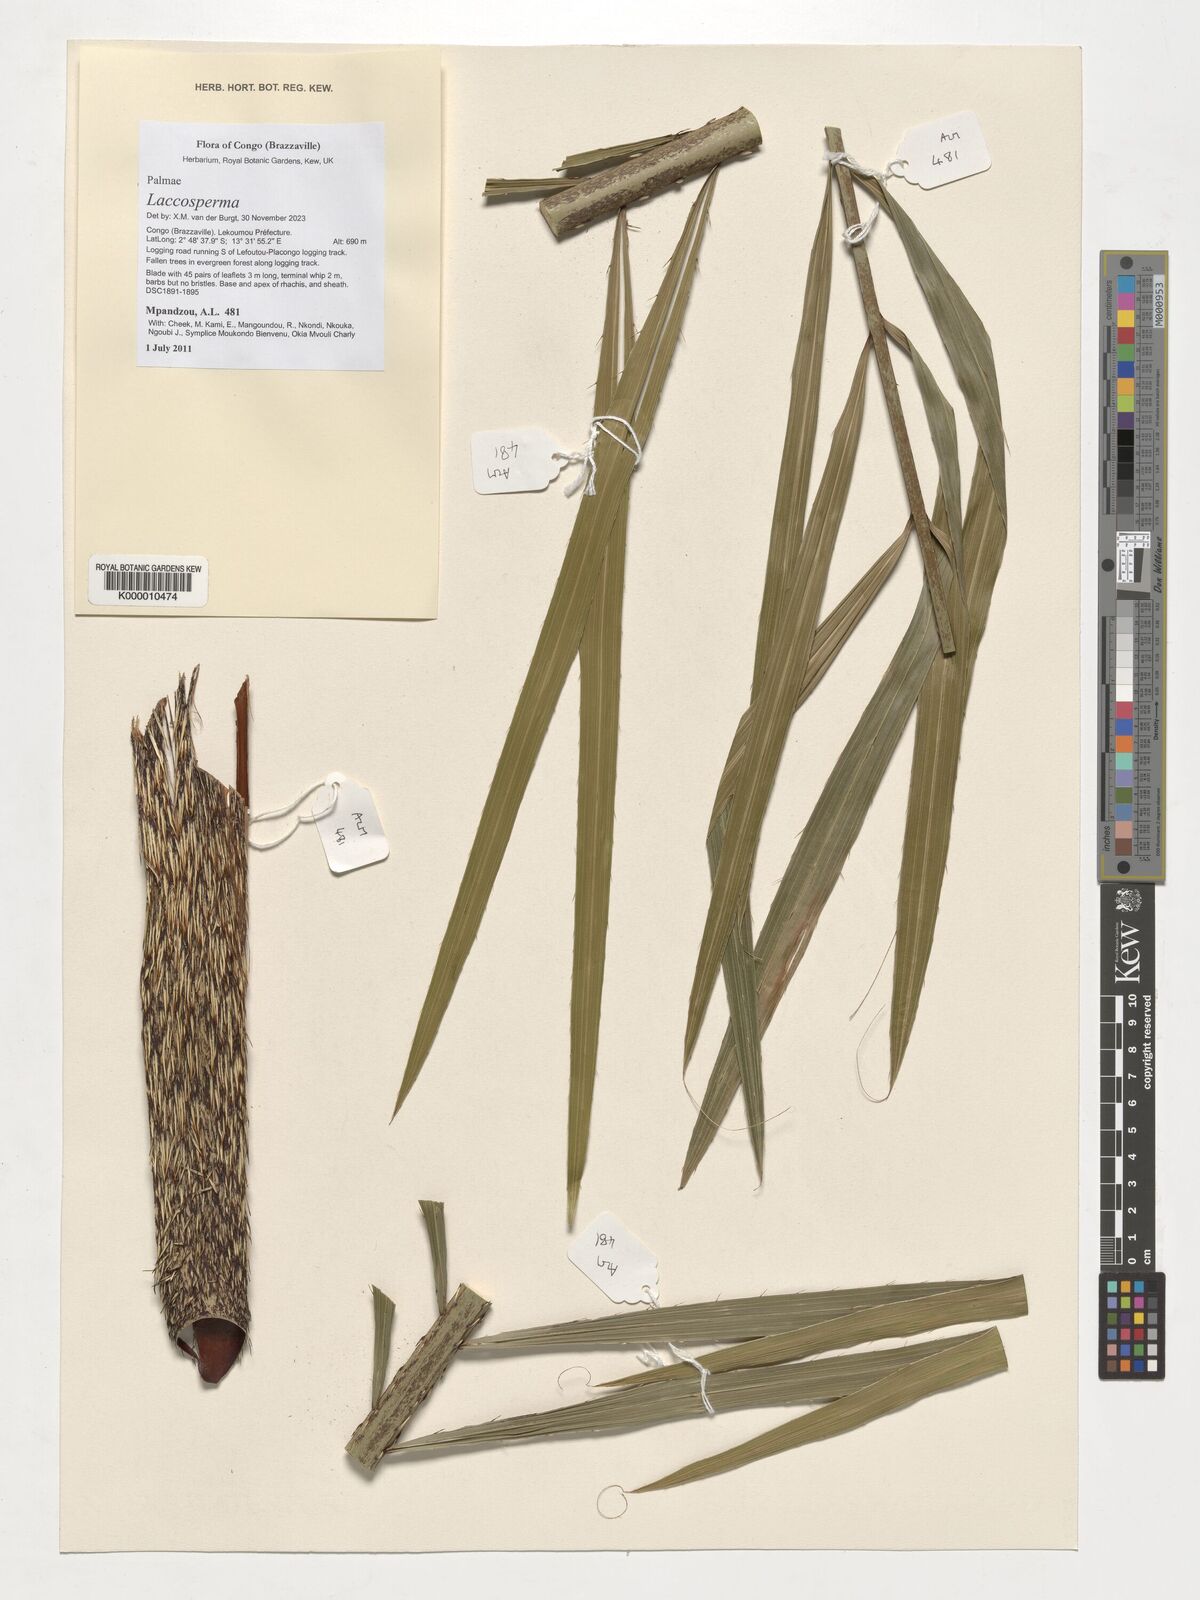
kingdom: Plantae
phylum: Tracheophyta
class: Liliopsida
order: Arecales
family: Arecaceae
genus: Laccosperma
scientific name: Laccosperma
